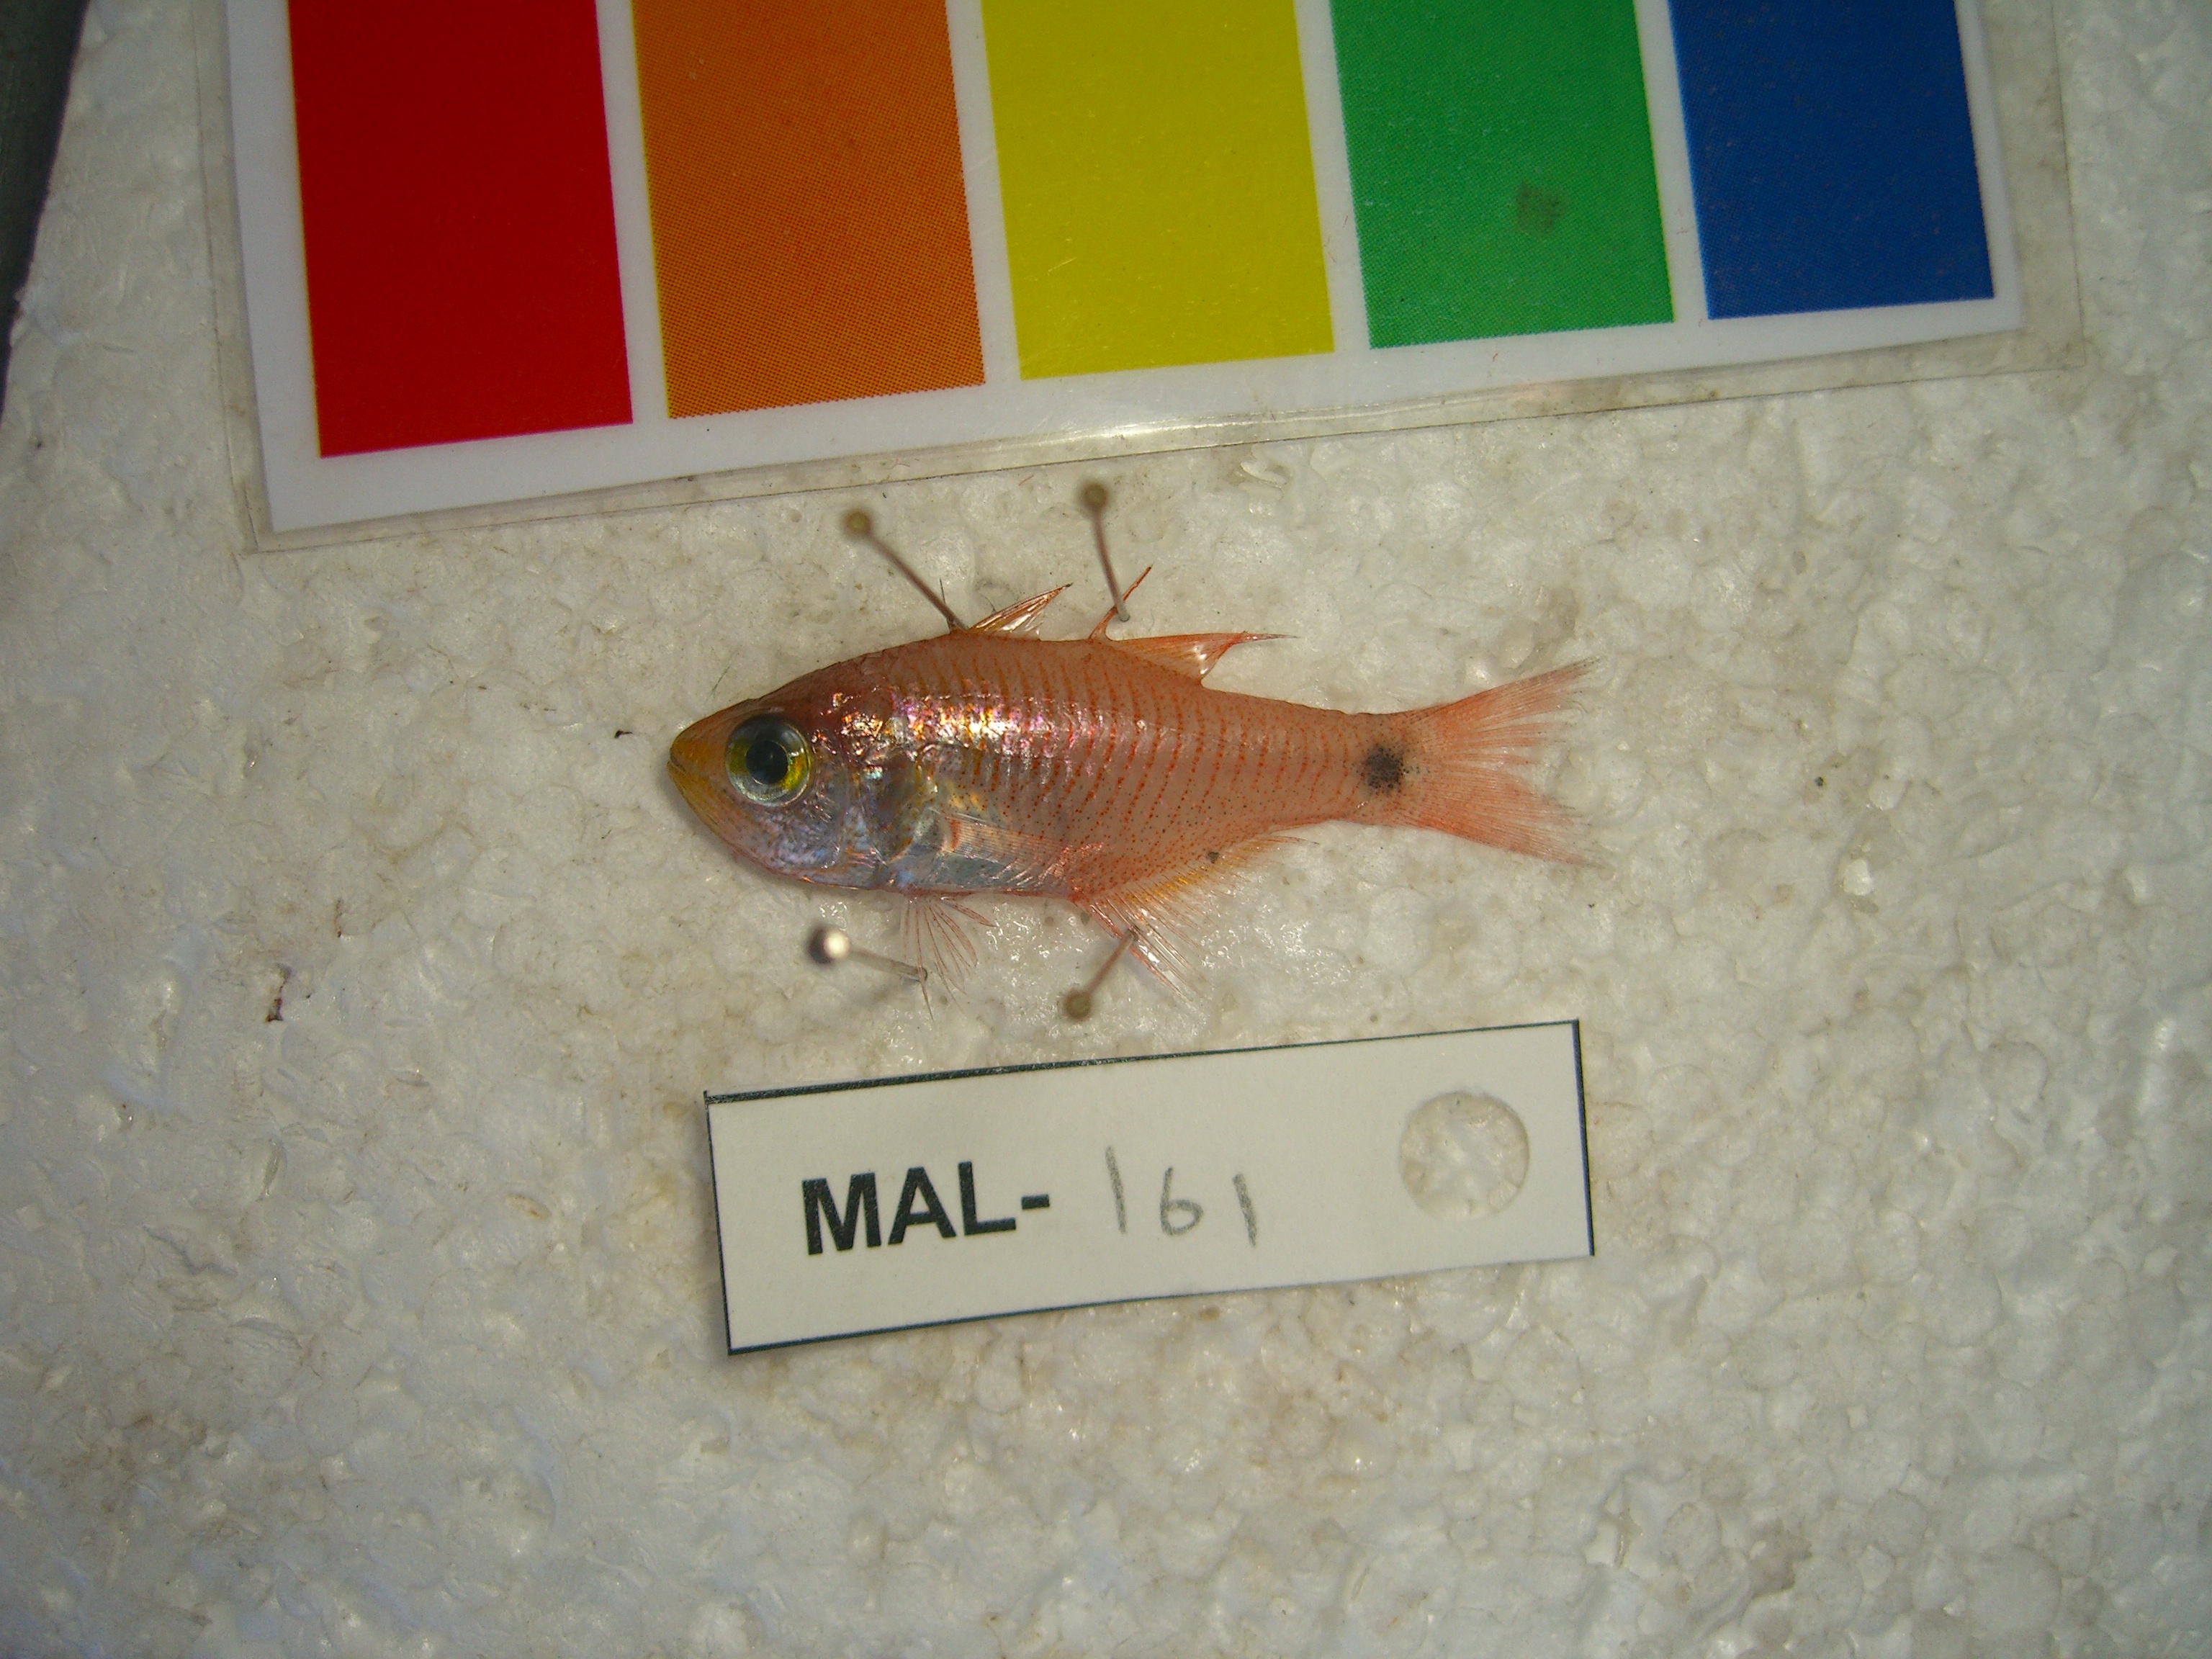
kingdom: Animalia
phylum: Chordata
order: Perciformes
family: Apogonidae
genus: Taeniamia
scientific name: Taeniamia fucata
